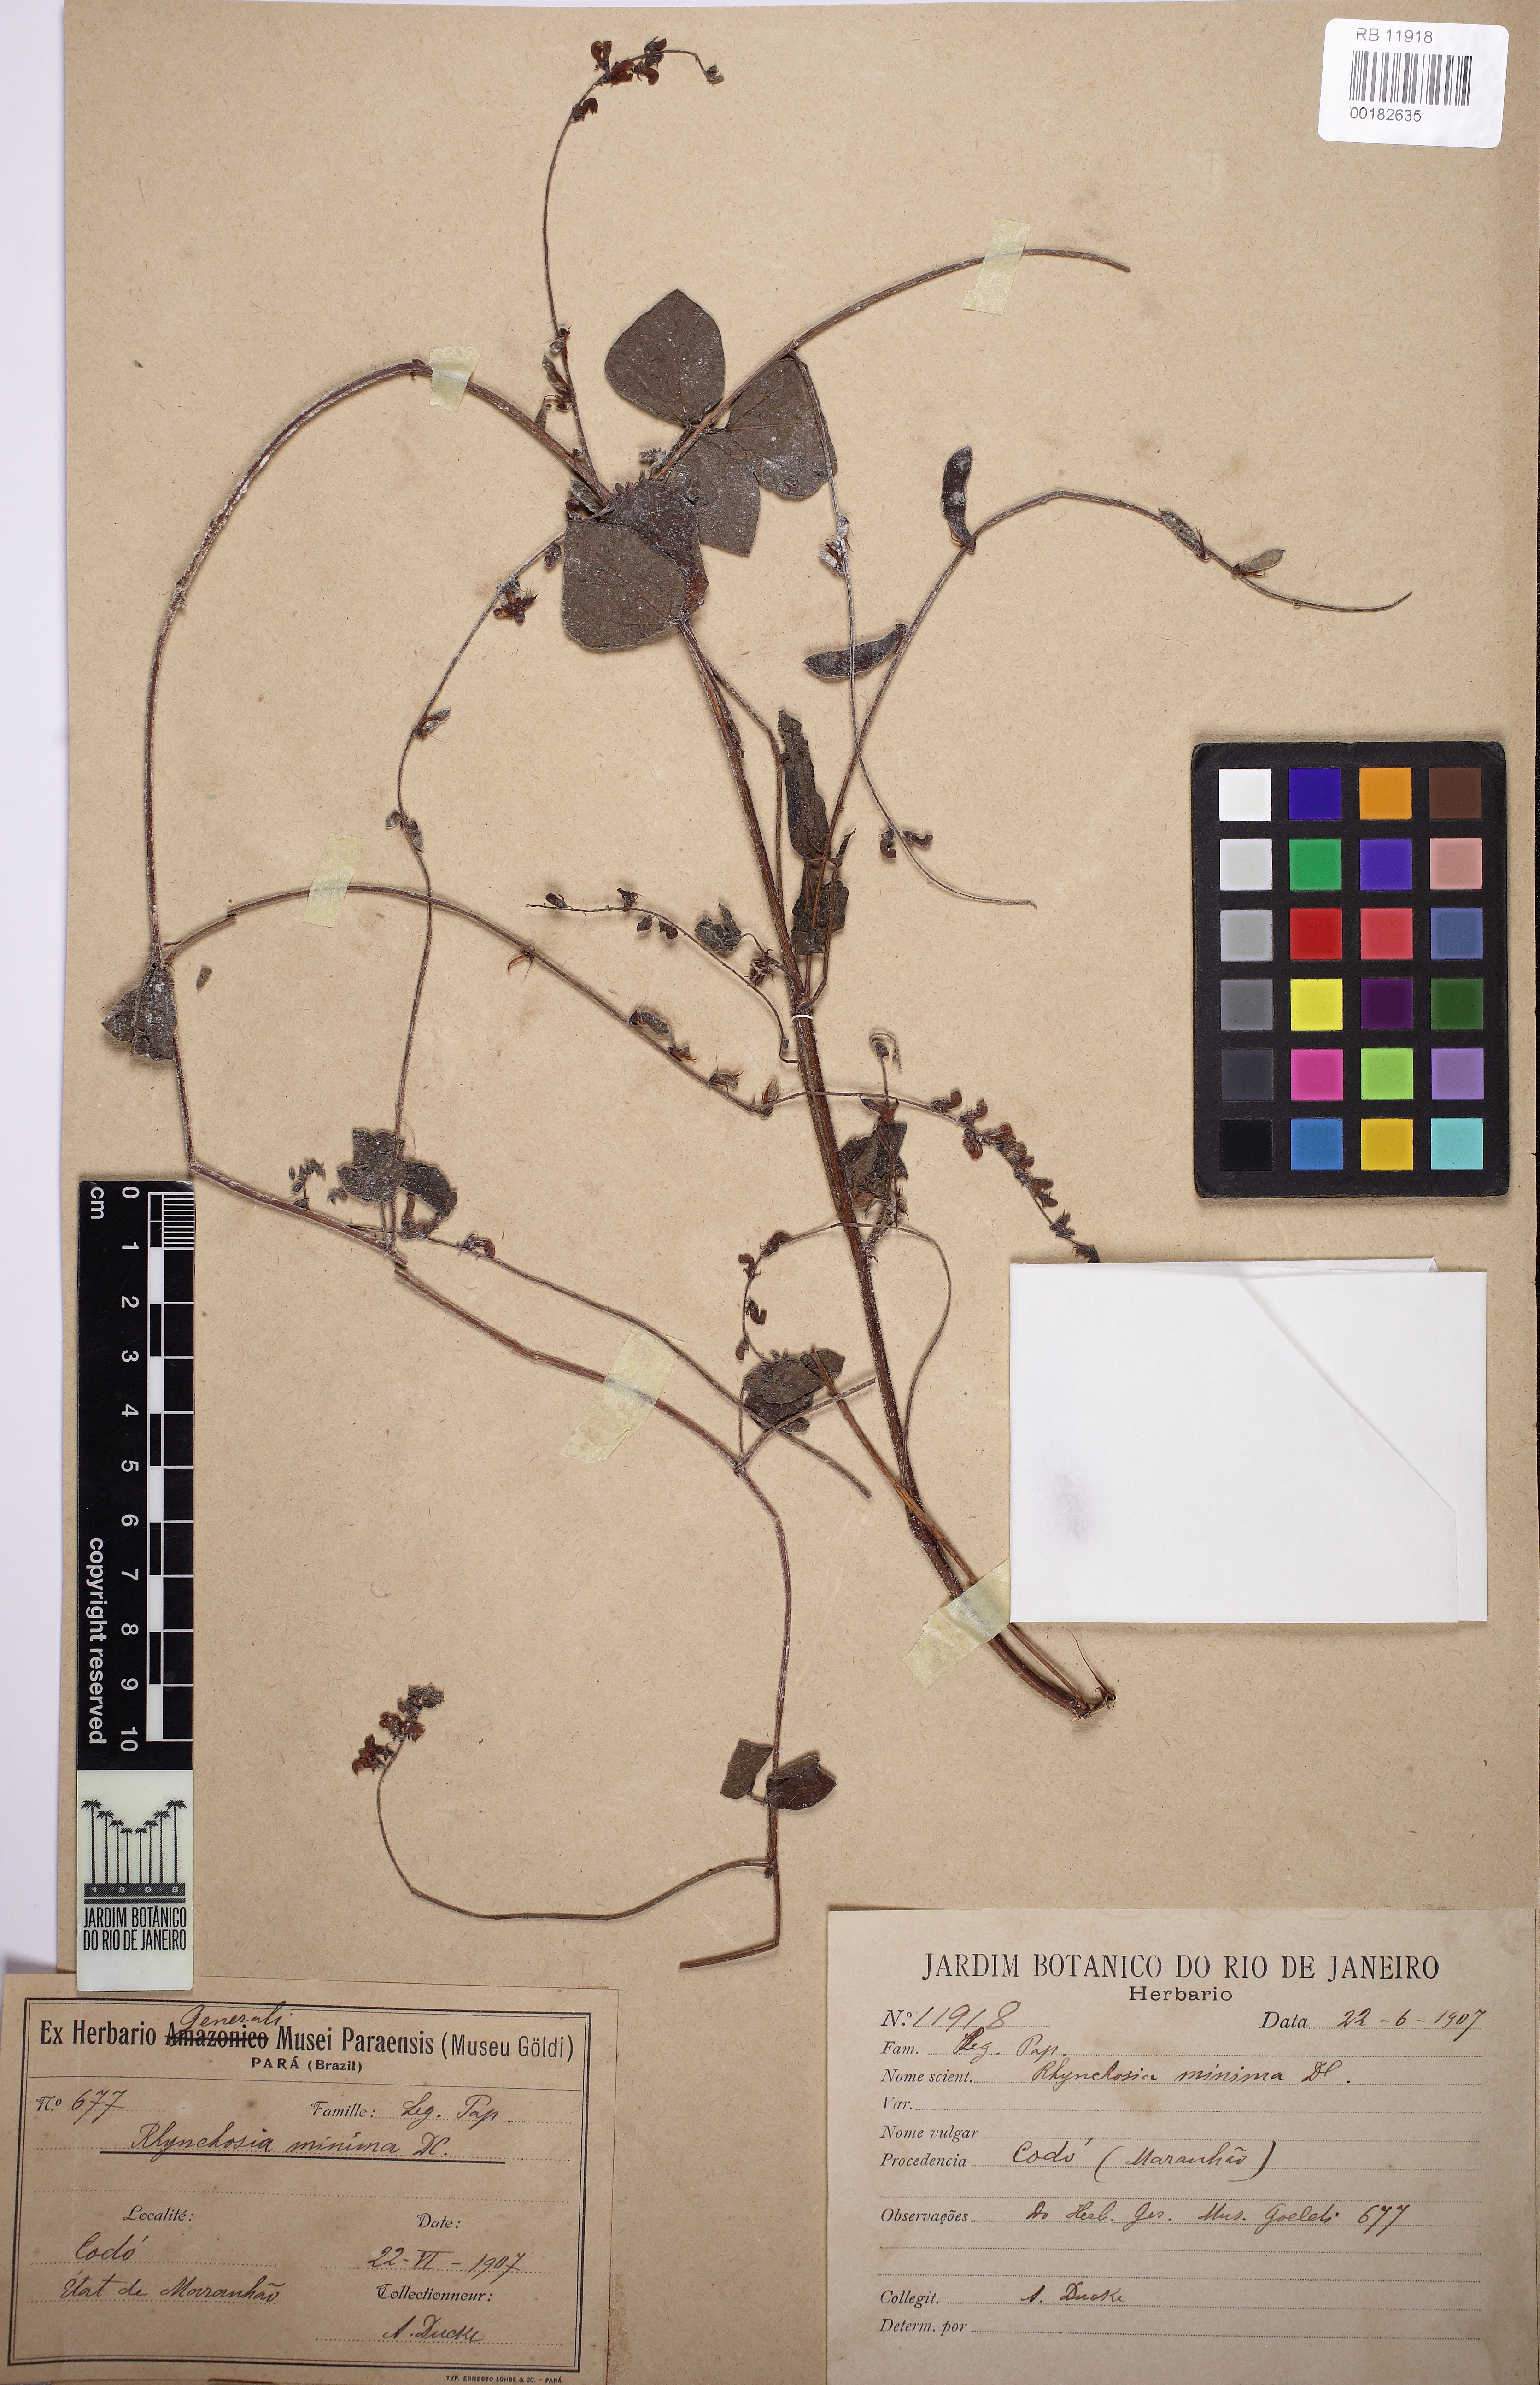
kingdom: Plantae
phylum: Tracheophyta
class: Magnoliopsida
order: Fabales
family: Fabaceae
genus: Rhynchosia
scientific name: Rhynchosia minima
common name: Least snoutbean
